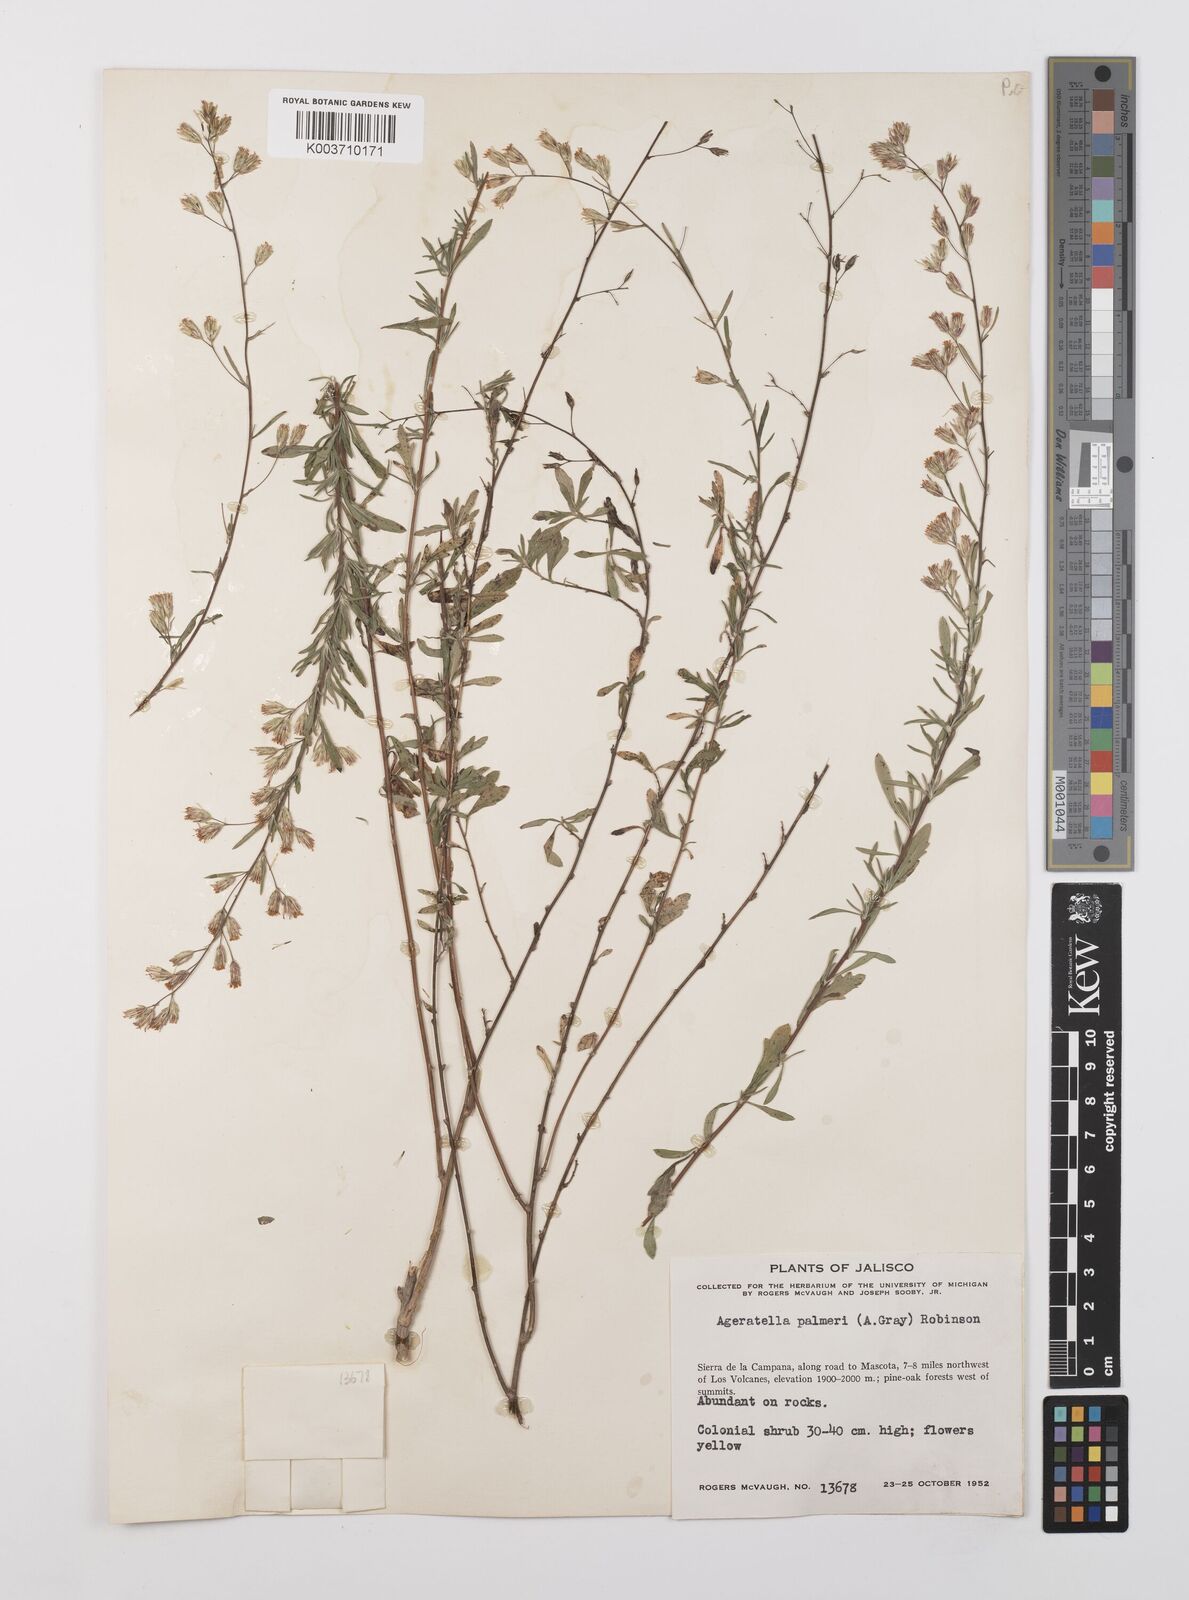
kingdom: Plantae
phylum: Tracheophyta
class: Magnoliopsida
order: Asterales
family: Asteraceae
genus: Ageratella
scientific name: Ageratella microphylla
